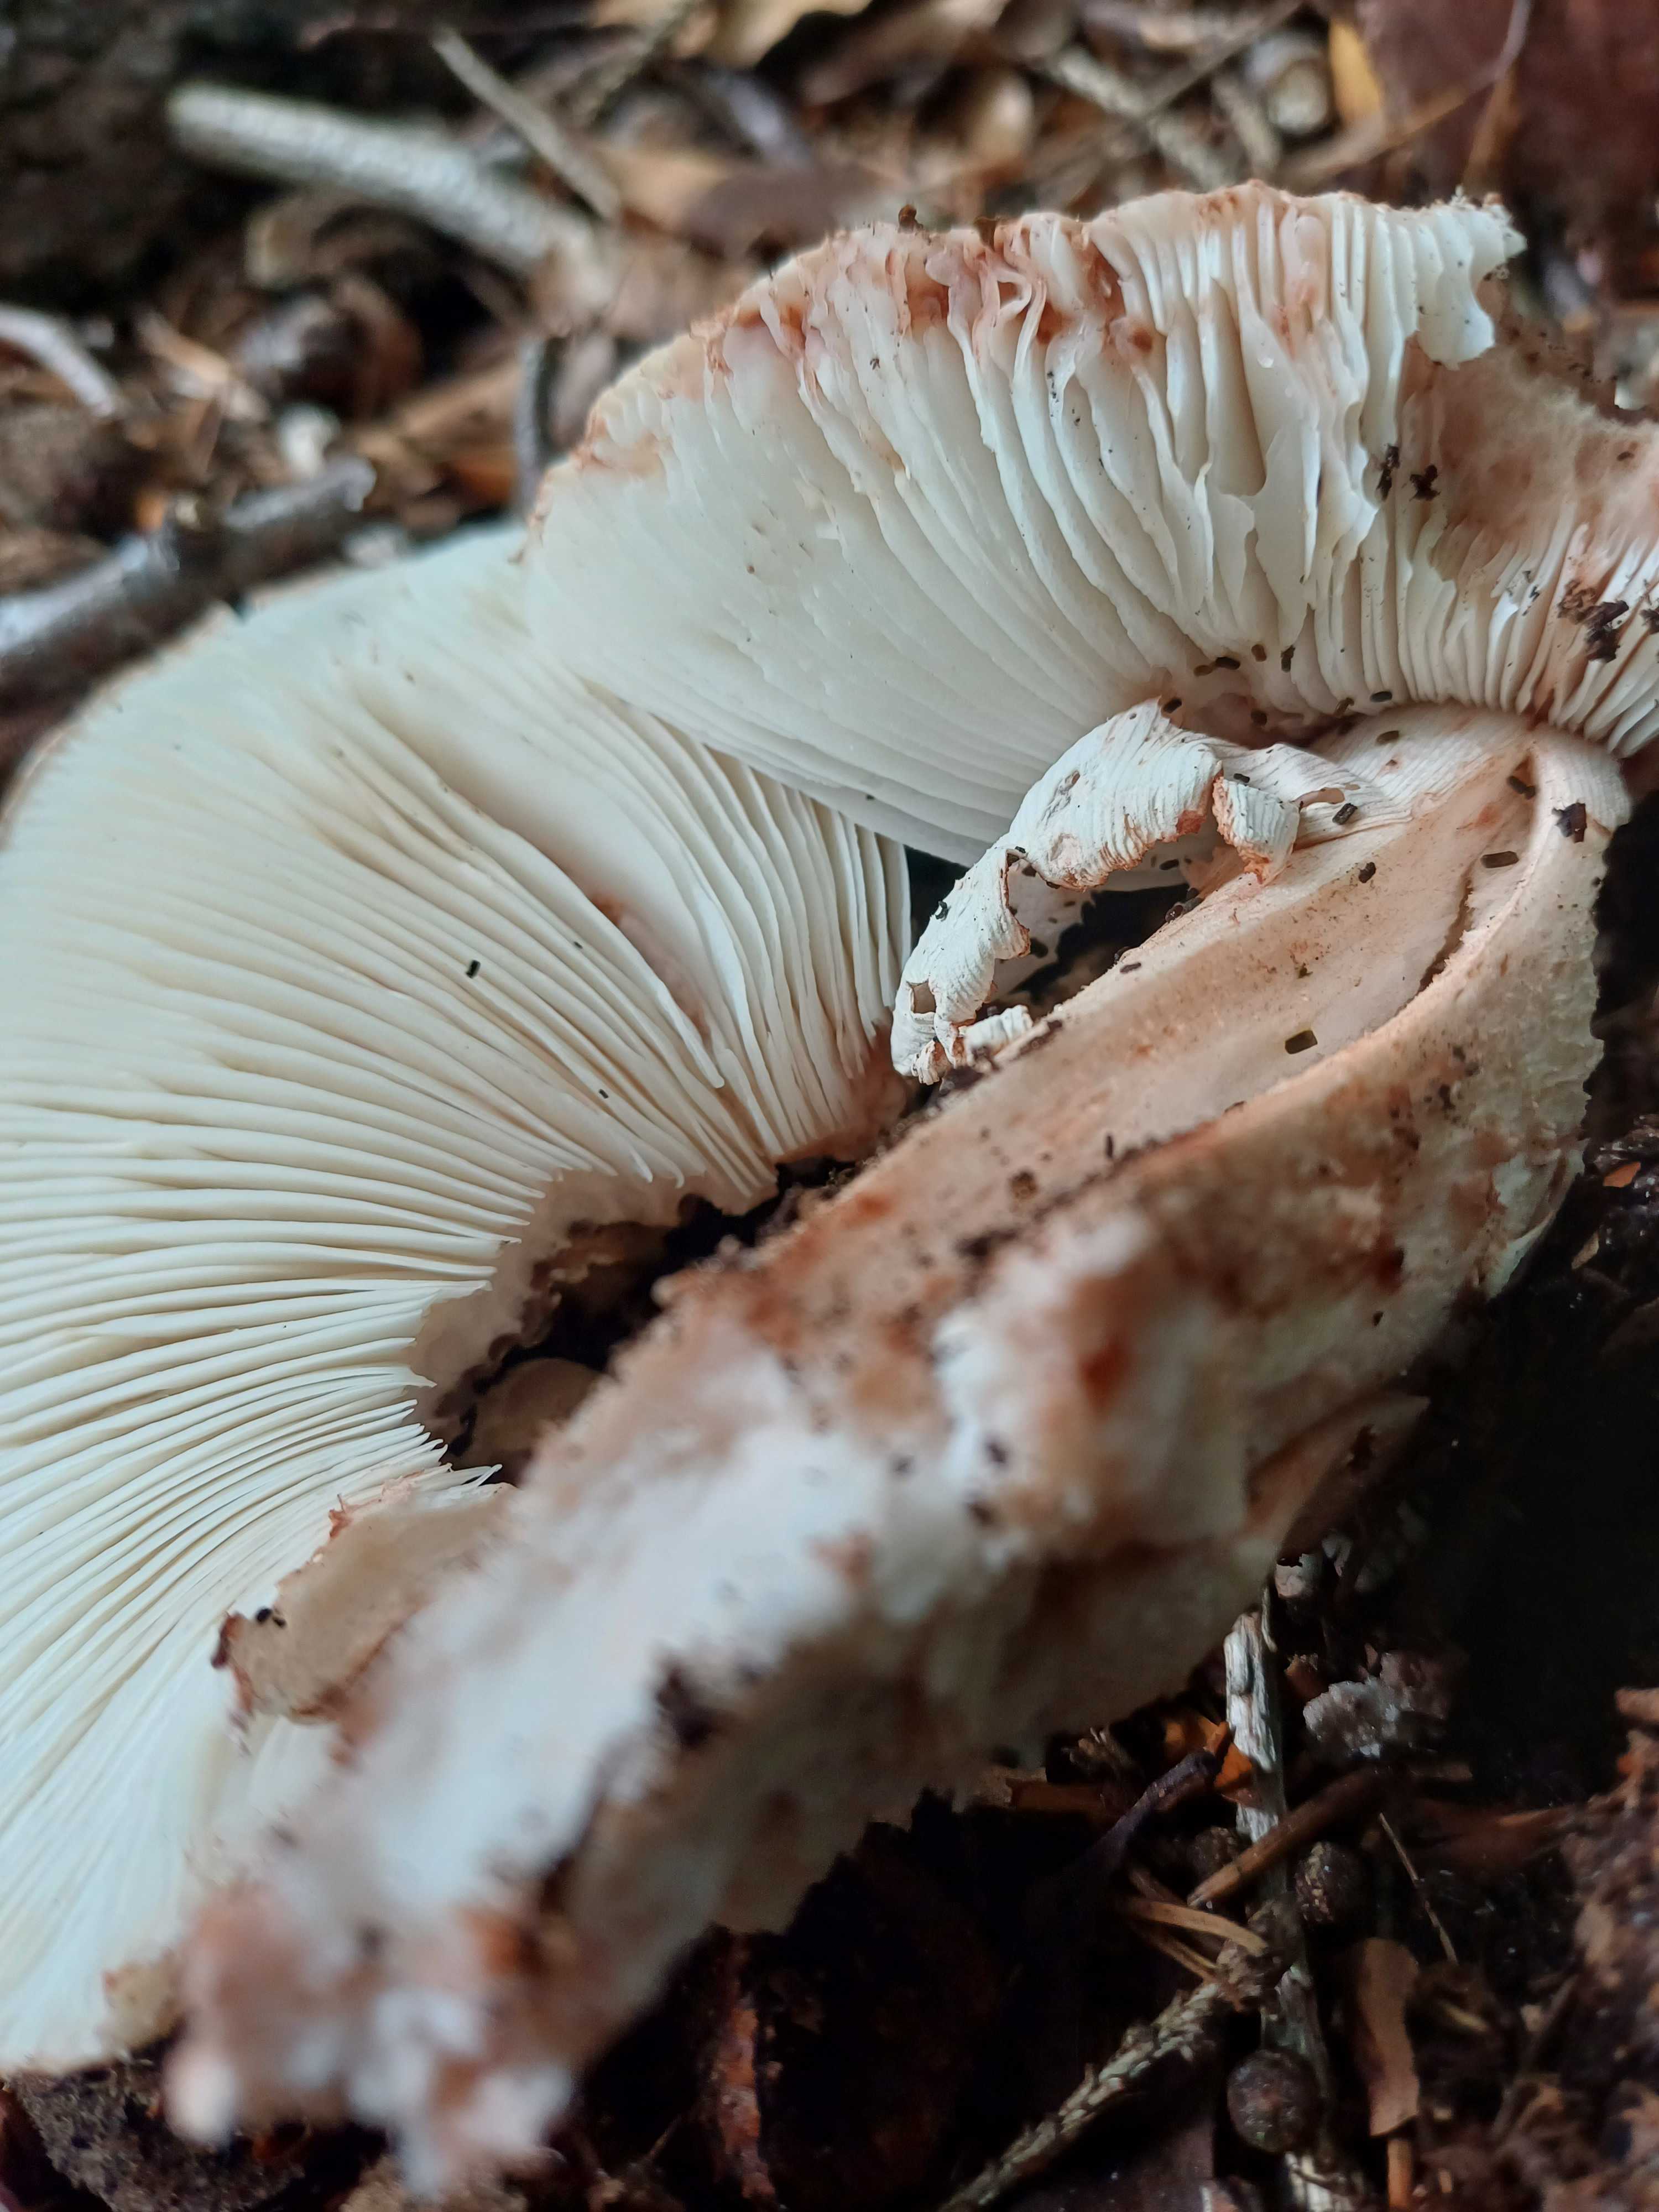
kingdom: Fungi
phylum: Basidiomycota
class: Agaricomycetes
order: Agaricales
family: Amanitaceae
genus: Amanita
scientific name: Amanita rubescens
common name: rødmende fluesvamp
